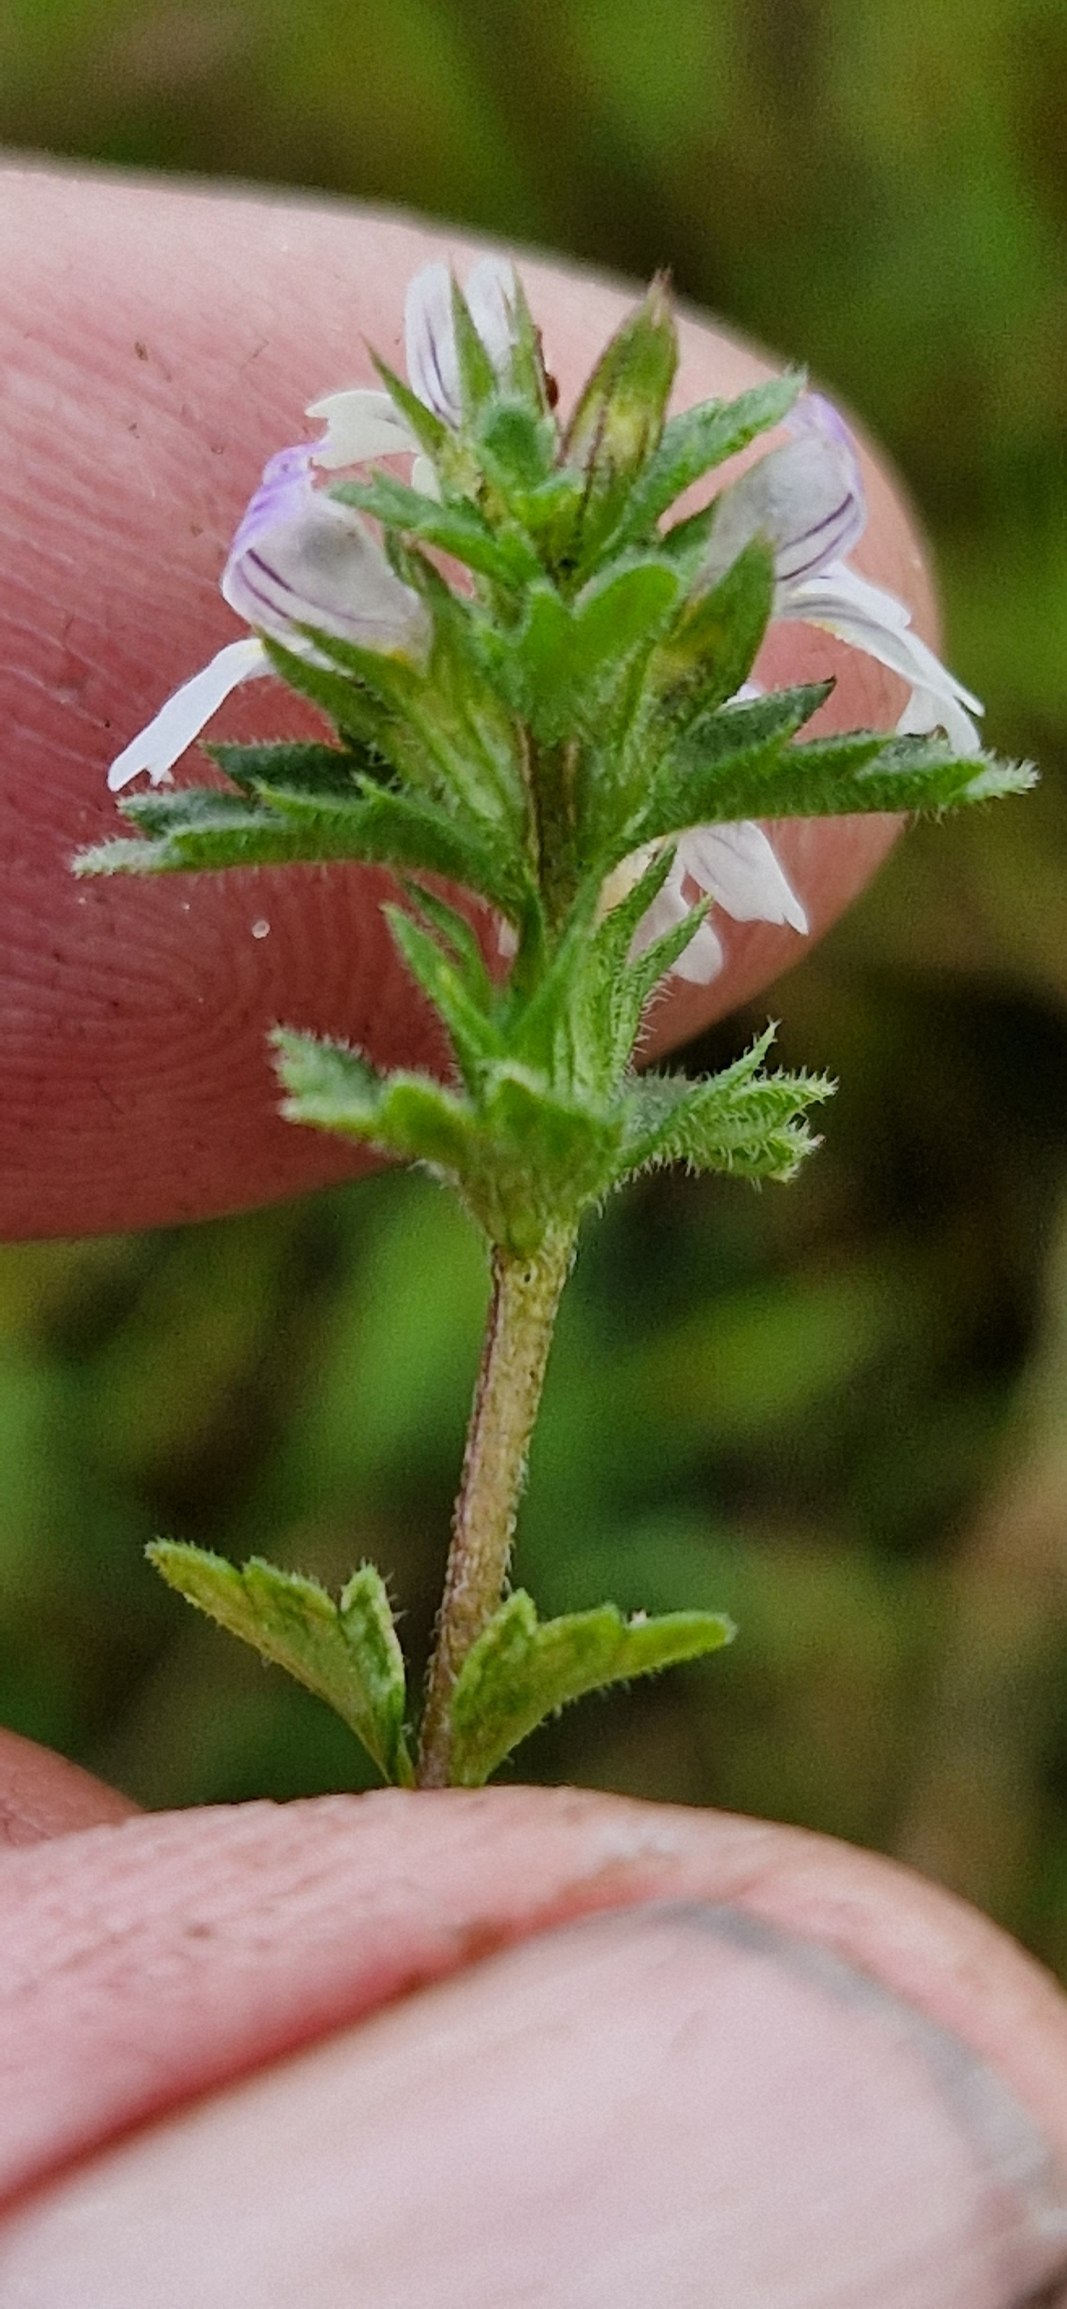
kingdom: Plantae
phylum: Tracheophyta
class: Magnoliopsida
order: Lamiales
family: Orobanchaceae
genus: Euphrasia
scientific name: Euphrasia nemorosa
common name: Kort øjentrøst
